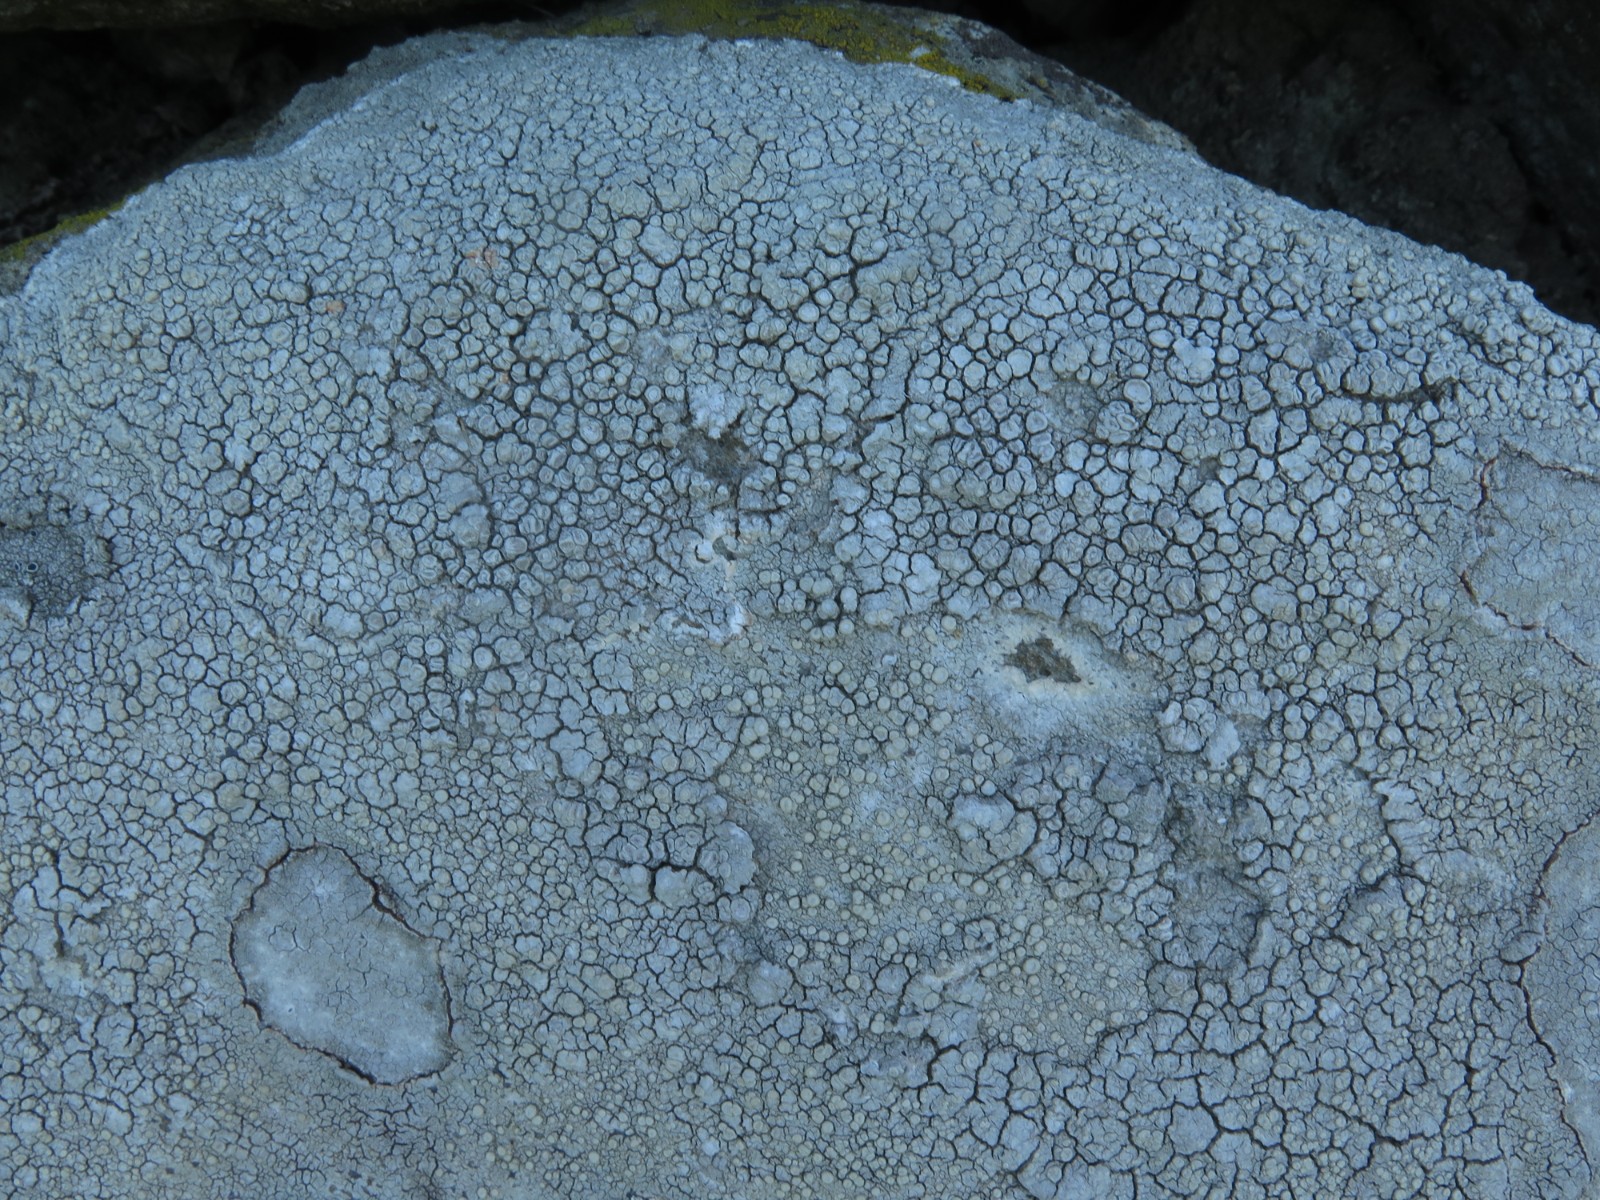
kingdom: Fungi
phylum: Ascomycota
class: Lecanoromycetes
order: Lecanorales
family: Lecanoraceae
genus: Glaucomaria
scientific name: Glaucomaria rupicola
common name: stengærde-kantskivelav
